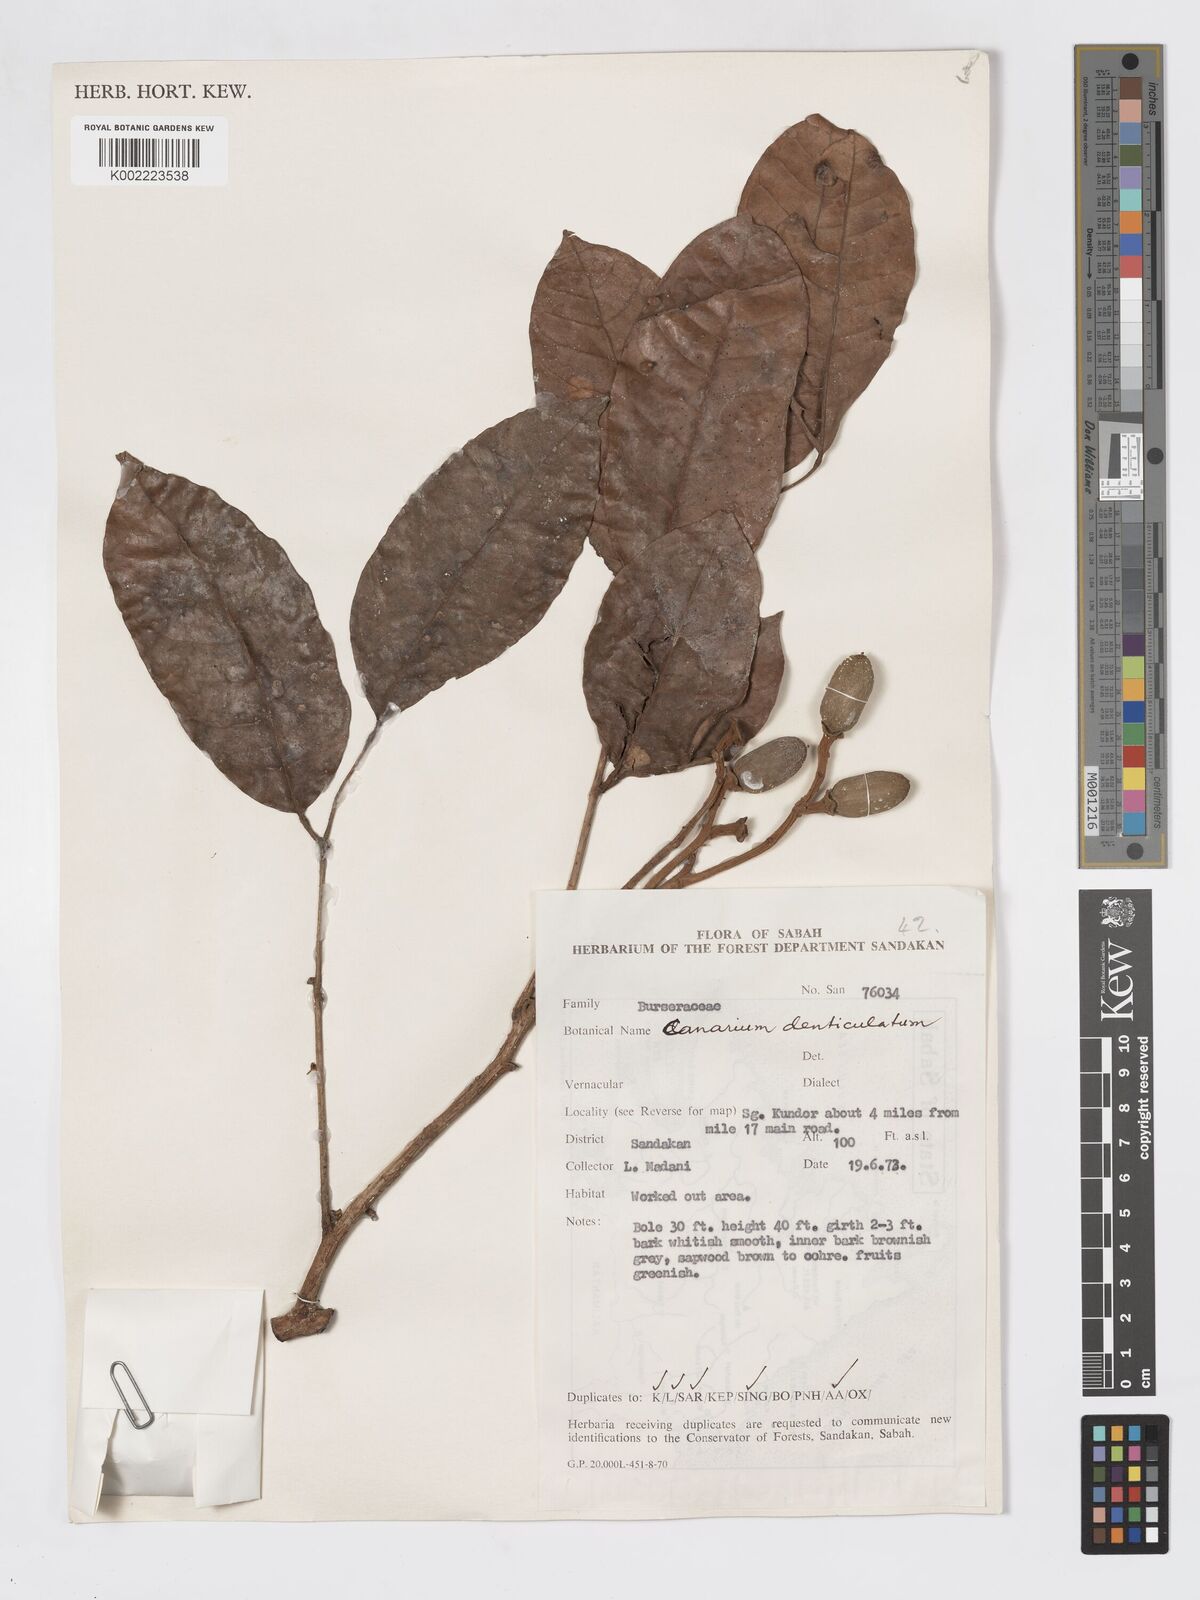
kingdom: Plantae
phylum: Tracheophyta
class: Magnoliopsida
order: Sapindales
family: Burseraceae
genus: Canarium
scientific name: Canarium denticulatum
